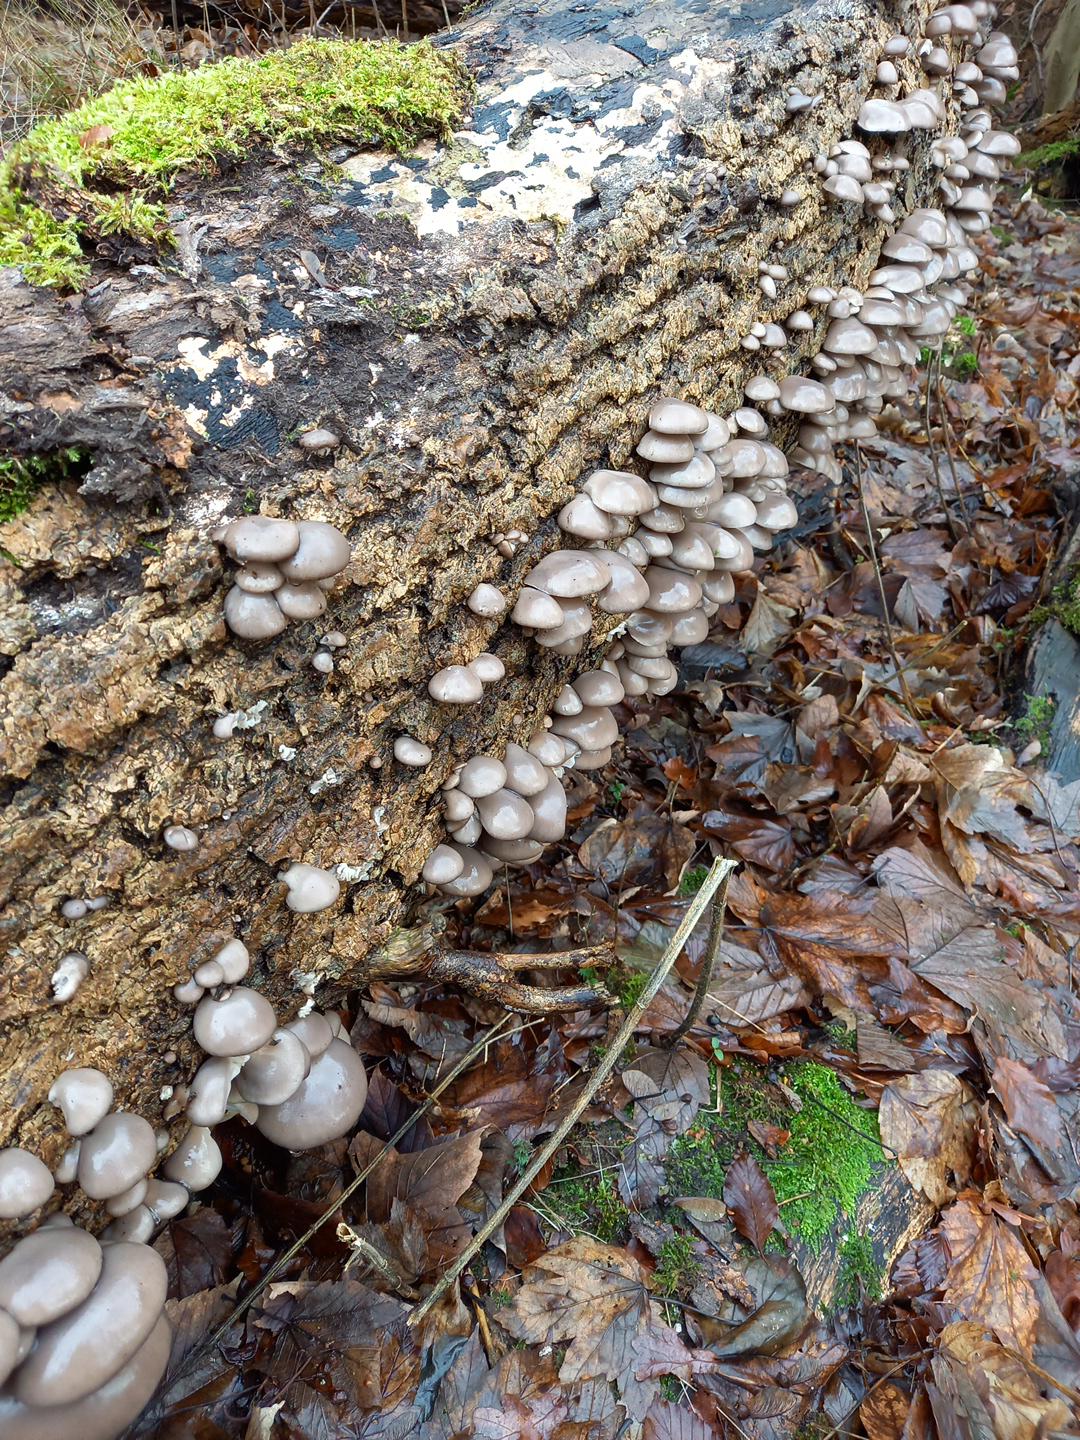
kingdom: Fungi
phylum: Basidiomycota
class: Agaricomycetes
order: Agaricales
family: Pleurotaceae
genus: Pleurotus
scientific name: Pleurotus ostreatus
